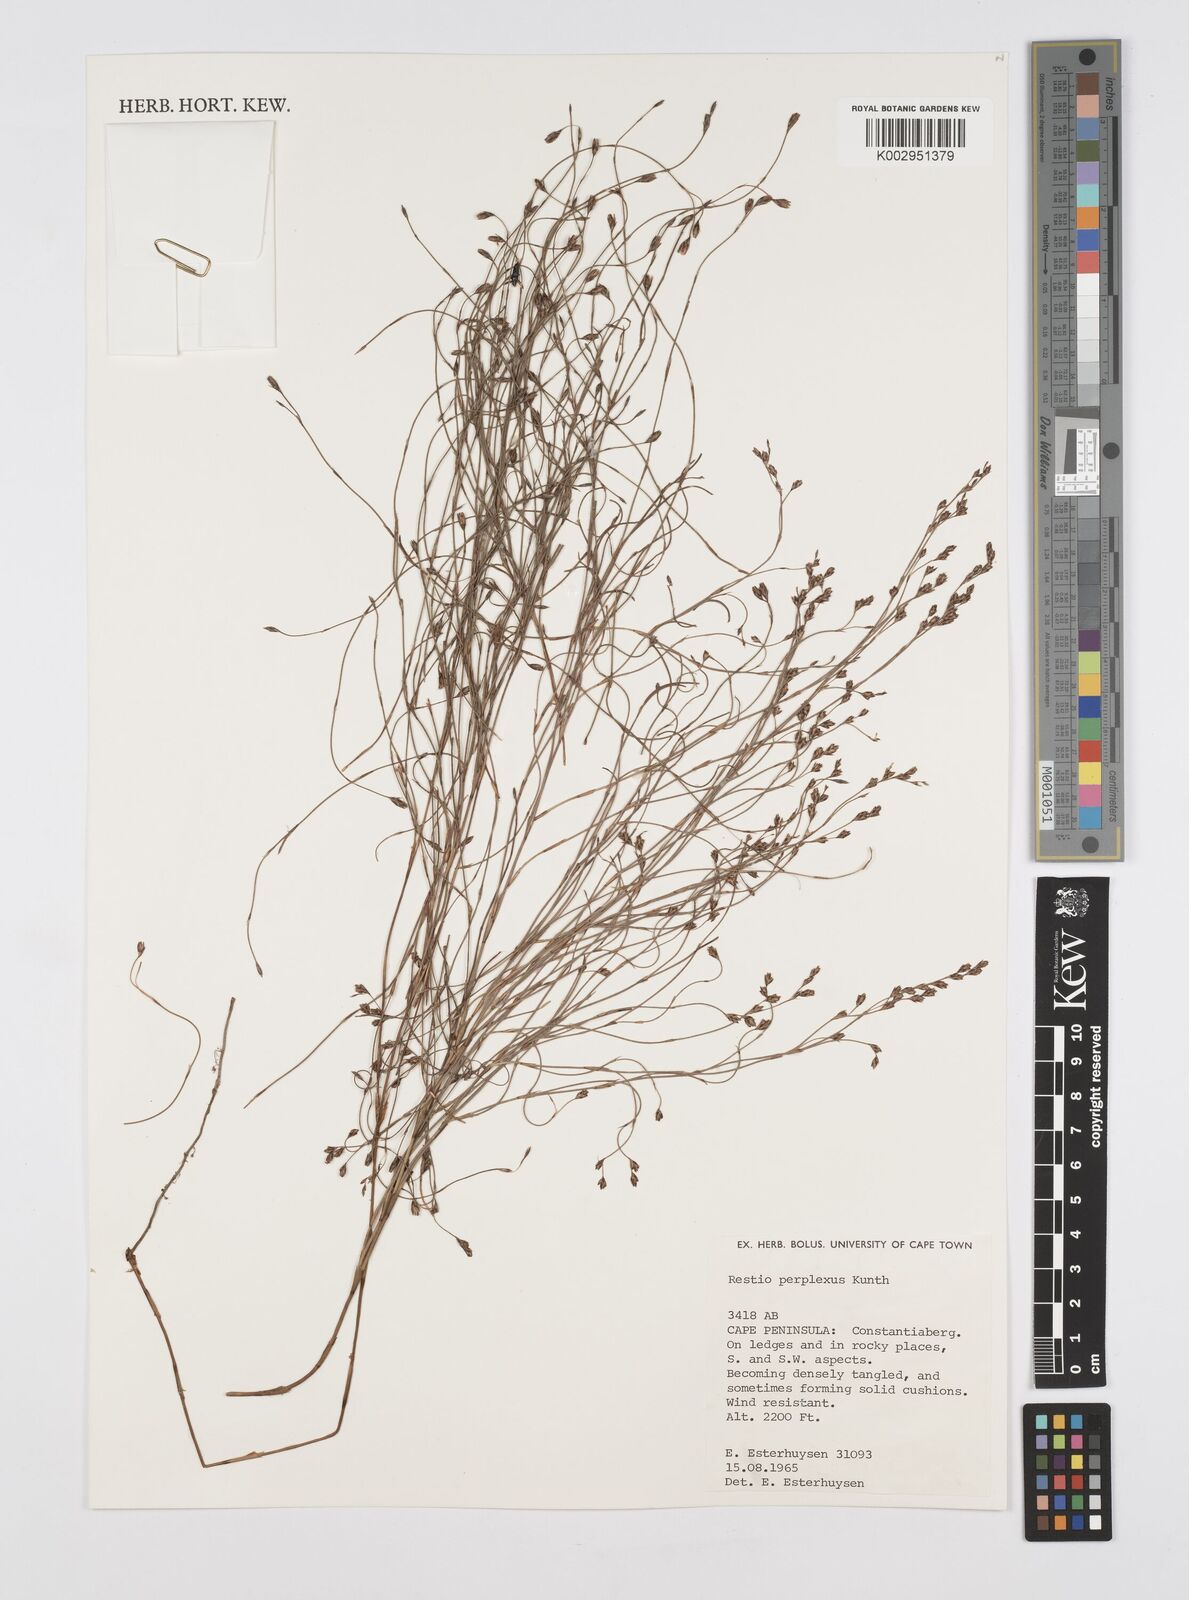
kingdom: Plantae
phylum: Tracheophyta
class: Liliopsida
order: Poales
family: Restionaceae
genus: Restio
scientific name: Restio perplexus
